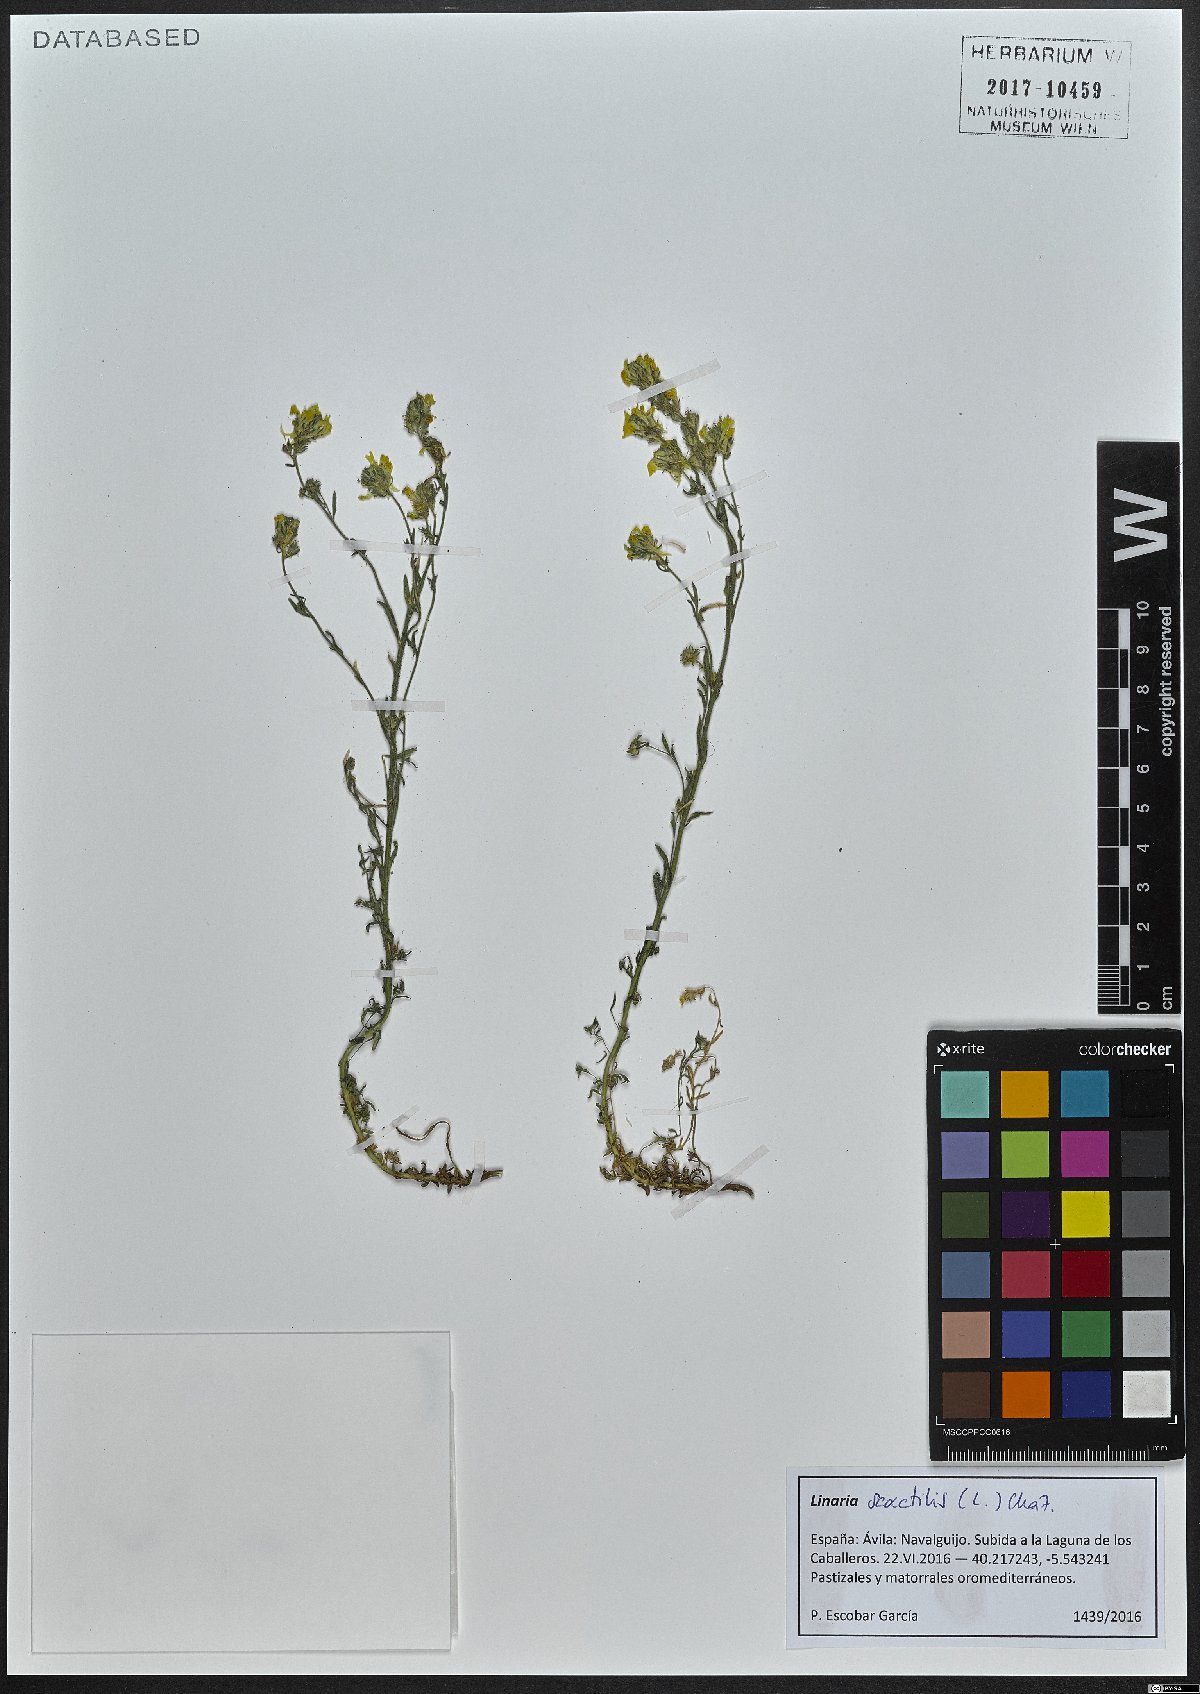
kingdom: Plantae
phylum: Tracheophyta
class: Magnoliopsida
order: Lamiales
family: Plantaginaceae
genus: Linaria
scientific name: Linaria saxatilis
